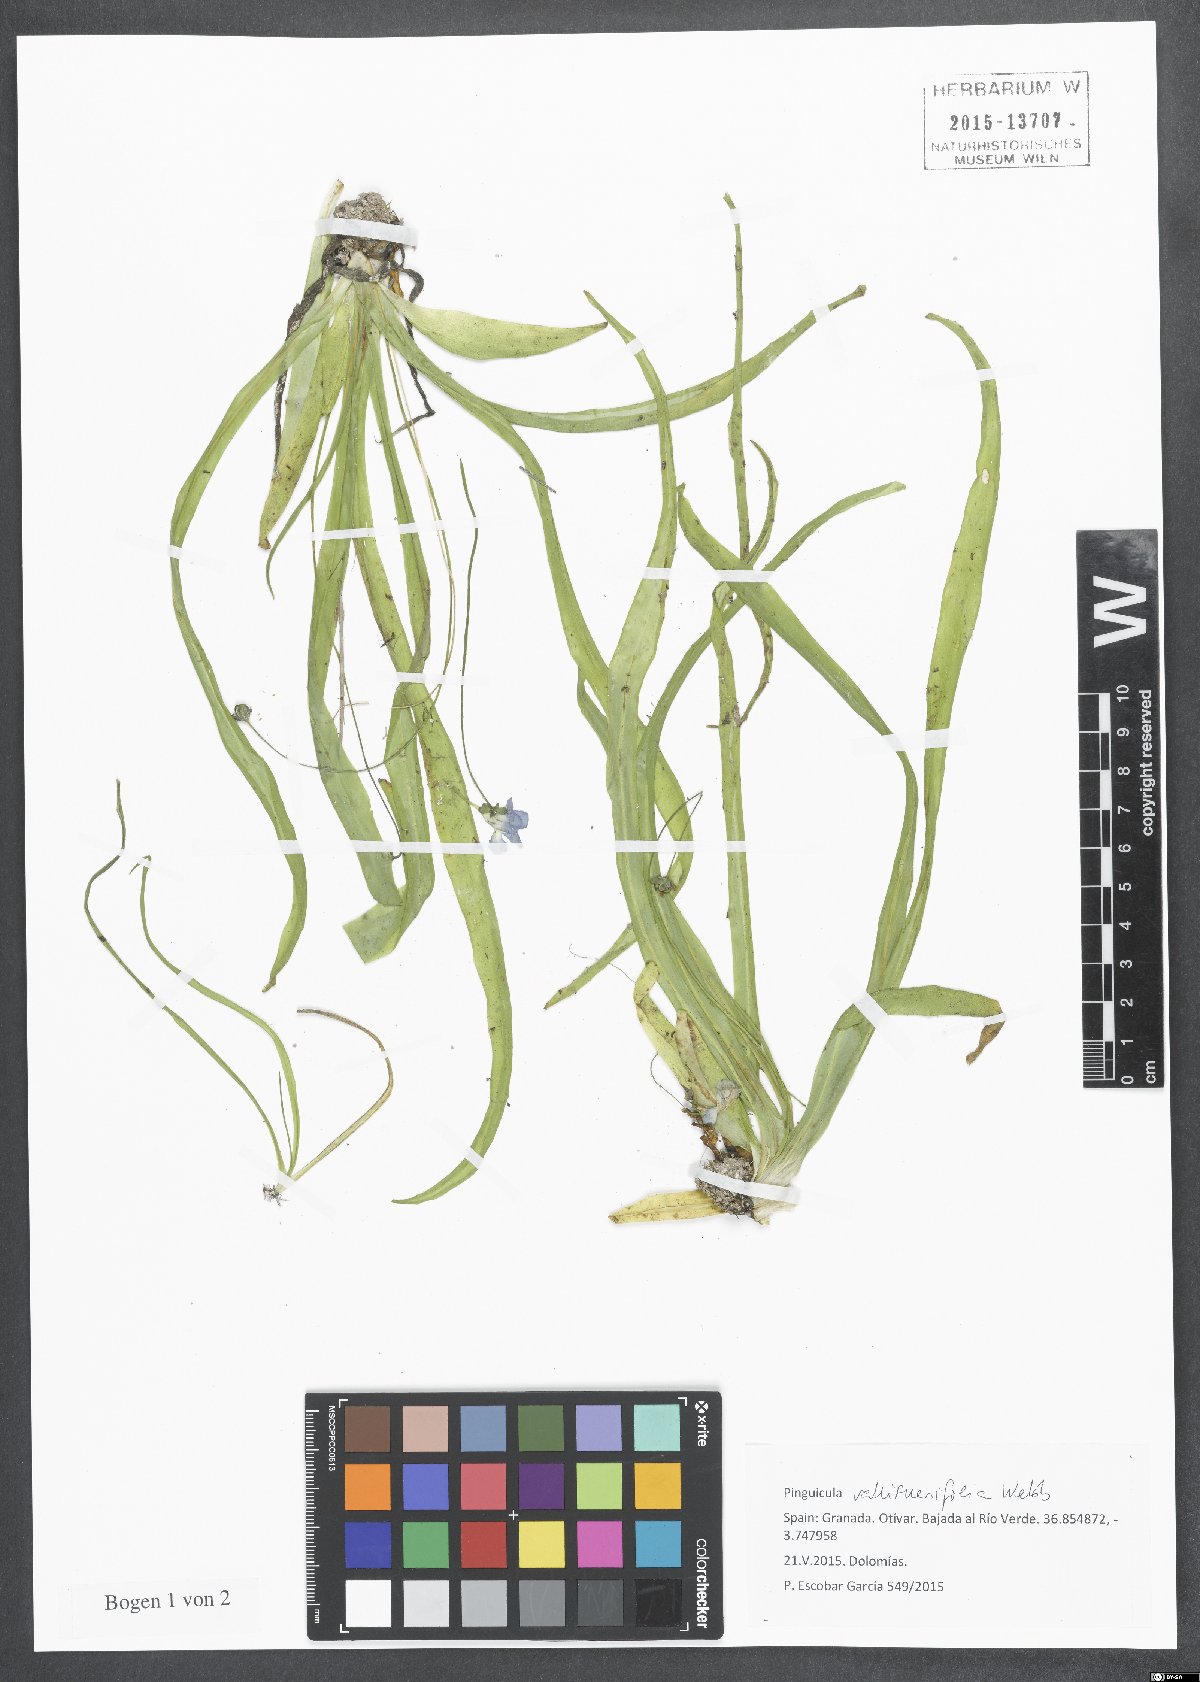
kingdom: Plantae
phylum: Tracheophyta
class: Magnoliopsida
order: Lamiales
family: Lentibulariaceae
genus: Pinguicula
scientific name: Pinguicula vallisneriifolia
